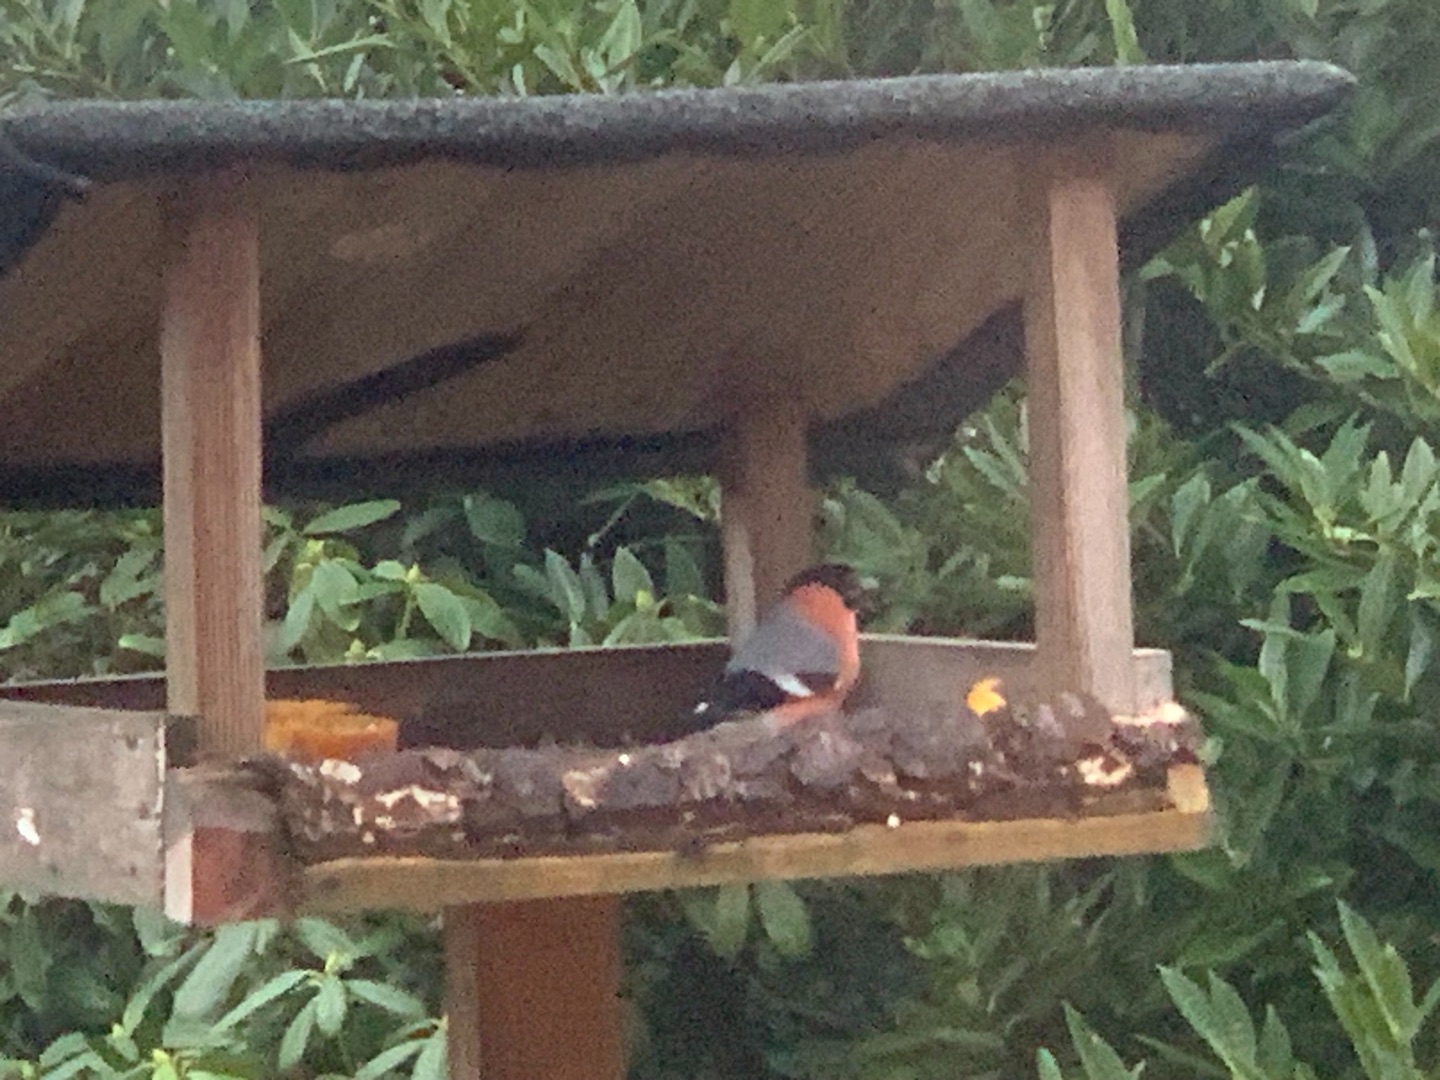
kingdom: Animalia
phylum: Chordata
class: Aves
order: Passeriformes
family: Fringillidae
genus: Pyrrhula
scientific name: Pyrrhula pyrrhula
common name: Dompap
